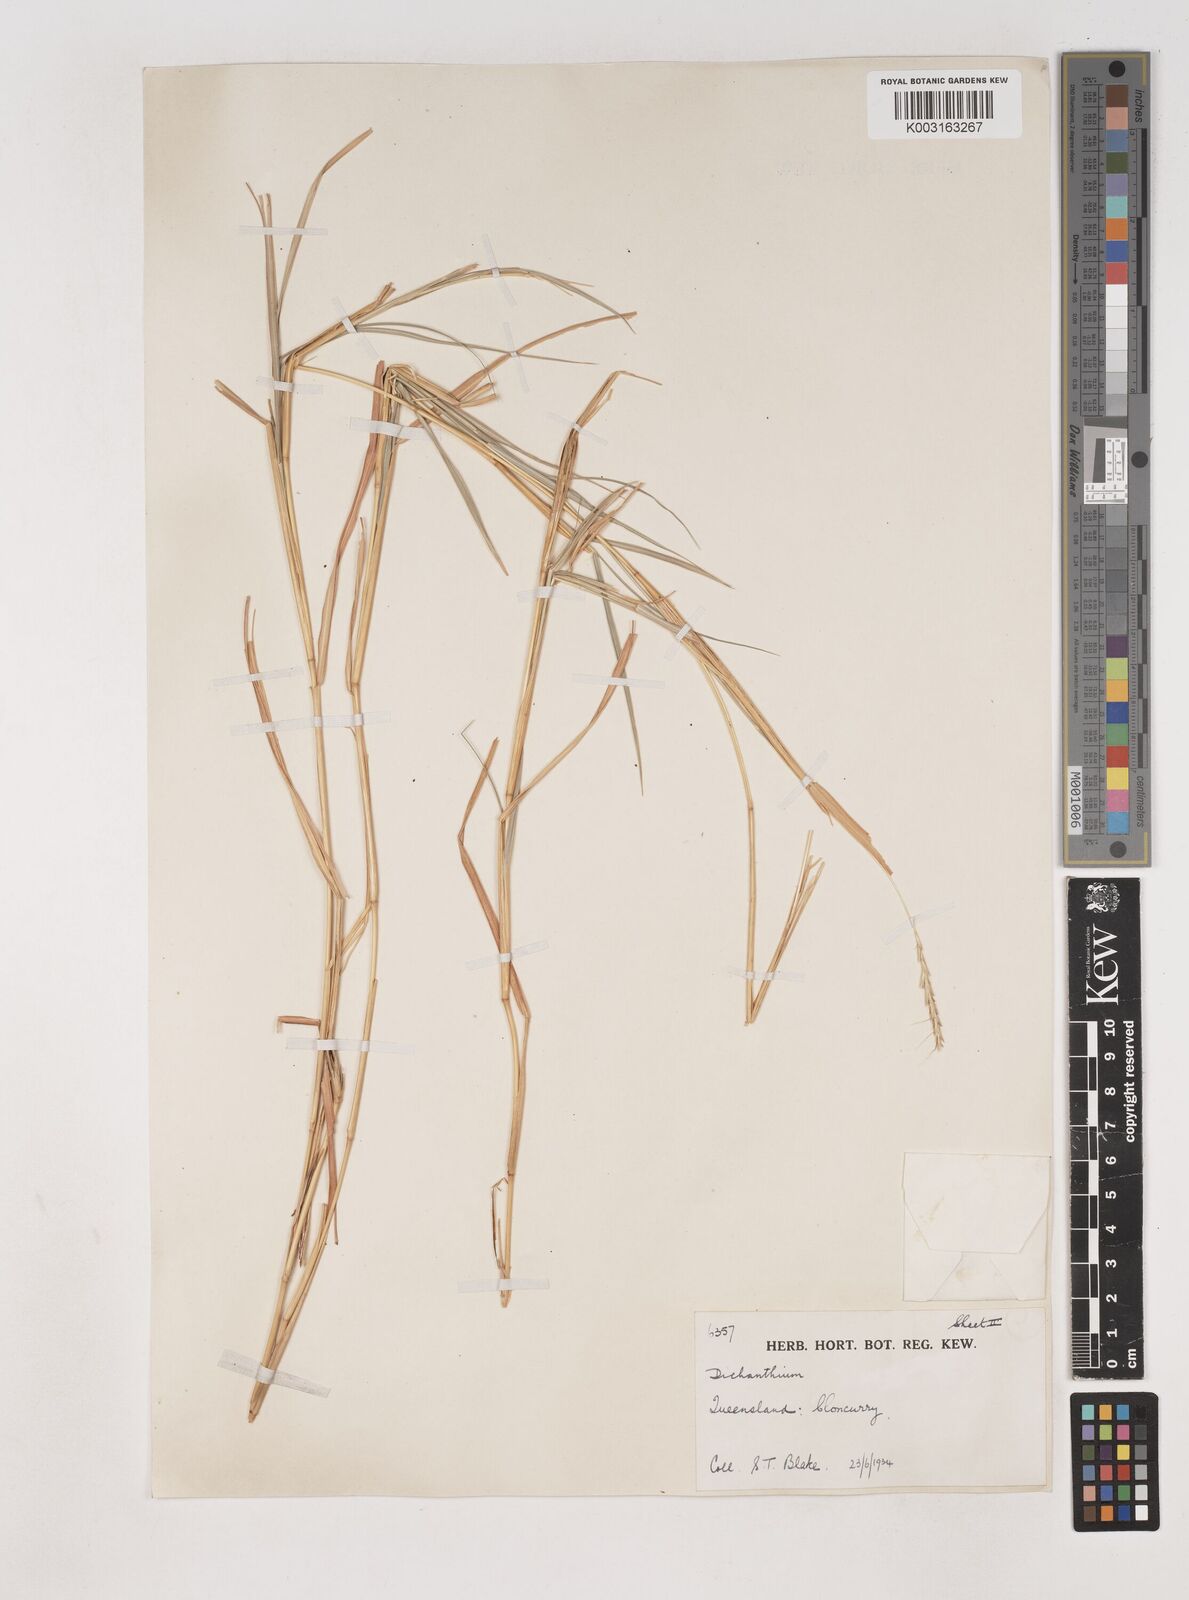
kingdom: Plantae
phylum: Tracheophyta
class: Liliopsida
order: Poales
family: Poaceae
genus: Dichanthium
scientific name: Dichanthium fecundum
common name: Bundle-bundle
